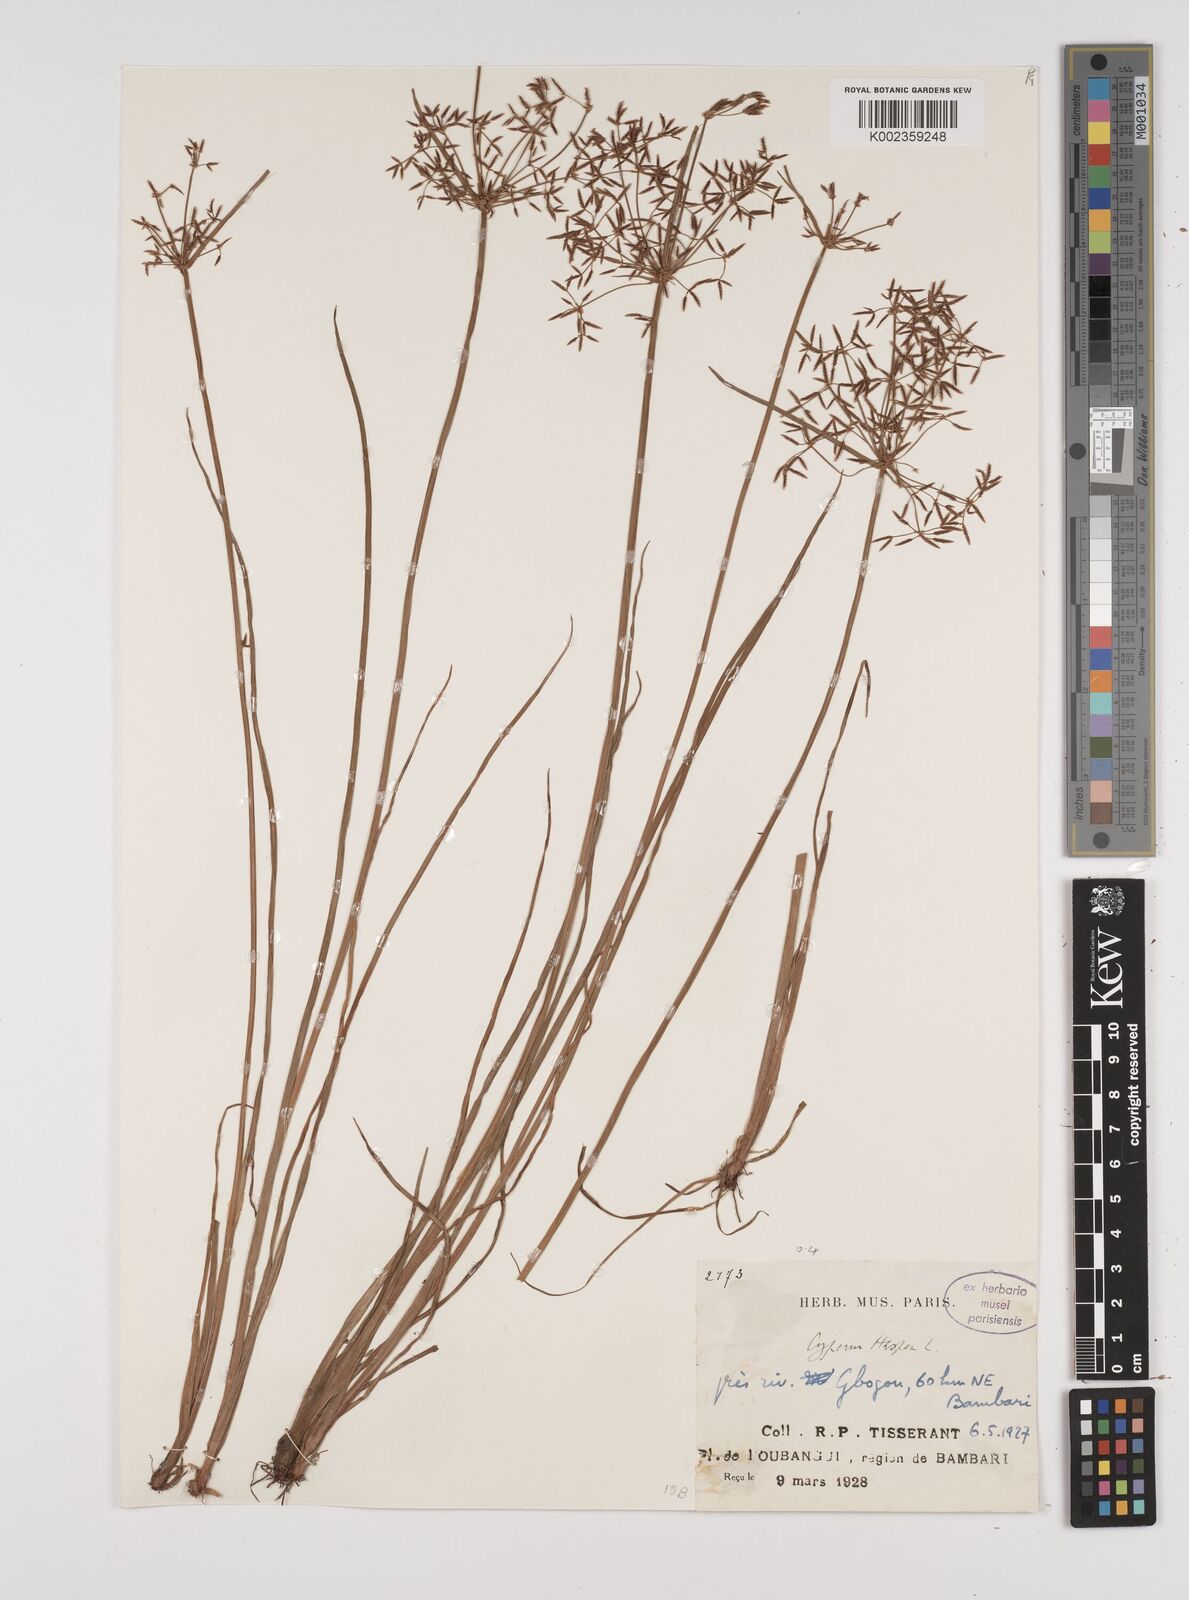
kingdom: Plantae
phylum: Tracheophyta
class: Liliopsida
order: Poales
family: Cyperaceae
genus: Cyperus
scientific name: Cyperus haspan
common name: Haspan flatsedge
